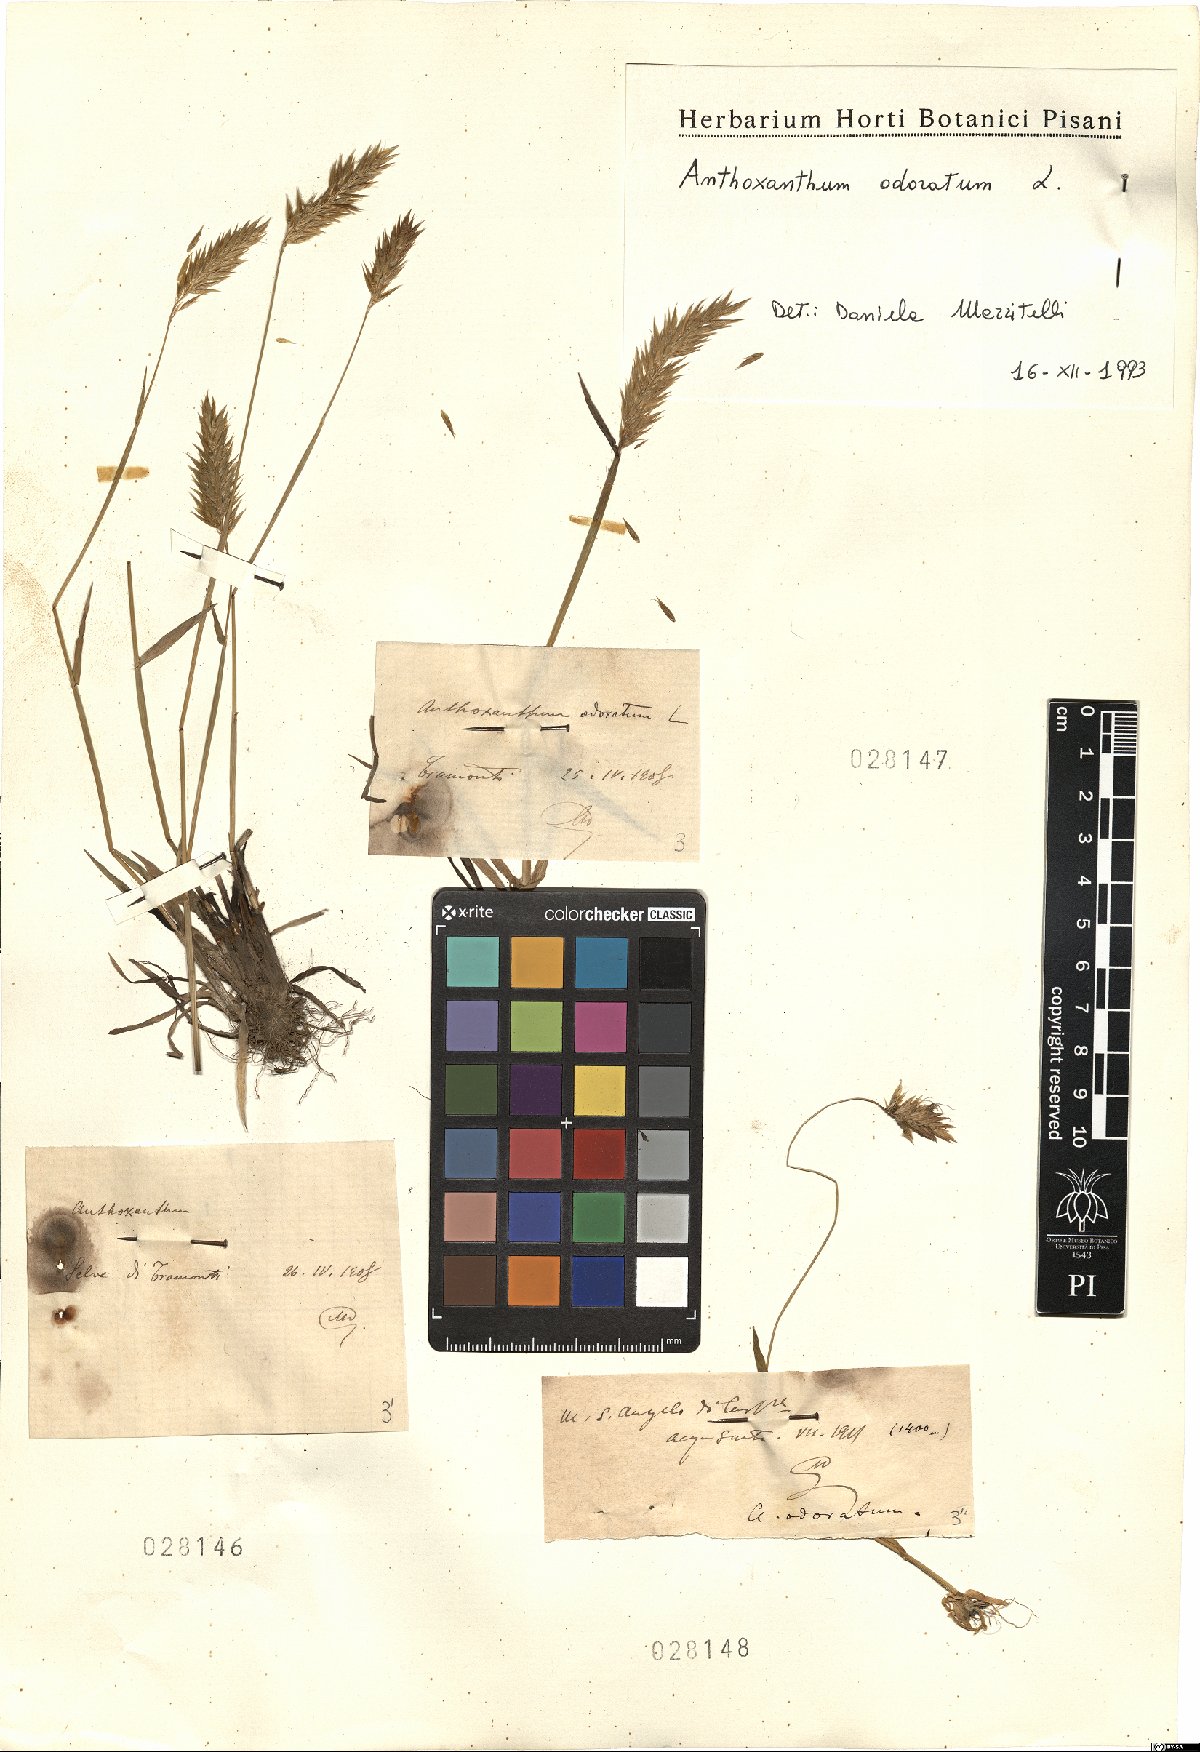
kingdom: Plantae
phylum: Tracheophyta
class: Liliopsida
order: Poales
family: Poaceae
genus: Anthoxanthum
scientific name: Anthoxanthum odoratum
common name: Sweet vernalgrass
